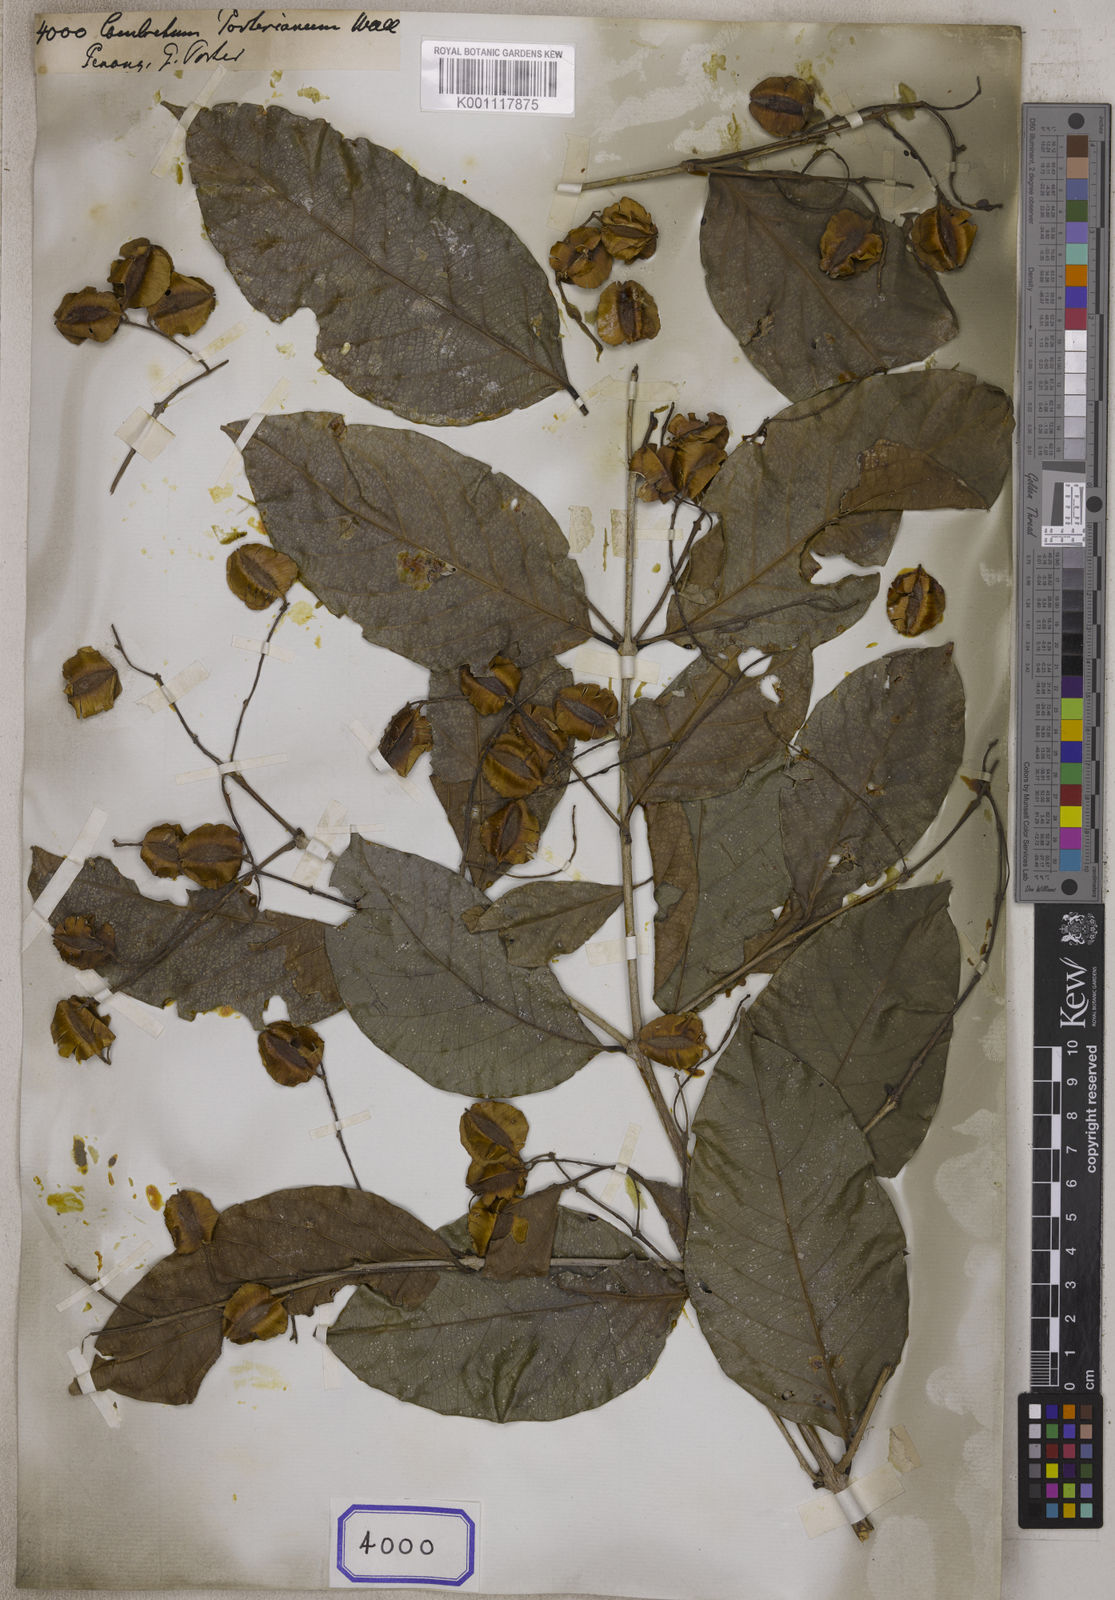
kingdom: Plantae
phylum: Tracheophyta
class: Magnoliopsida
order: Myrtales
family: Combretaceae
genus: Combretum
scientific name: Combretum
